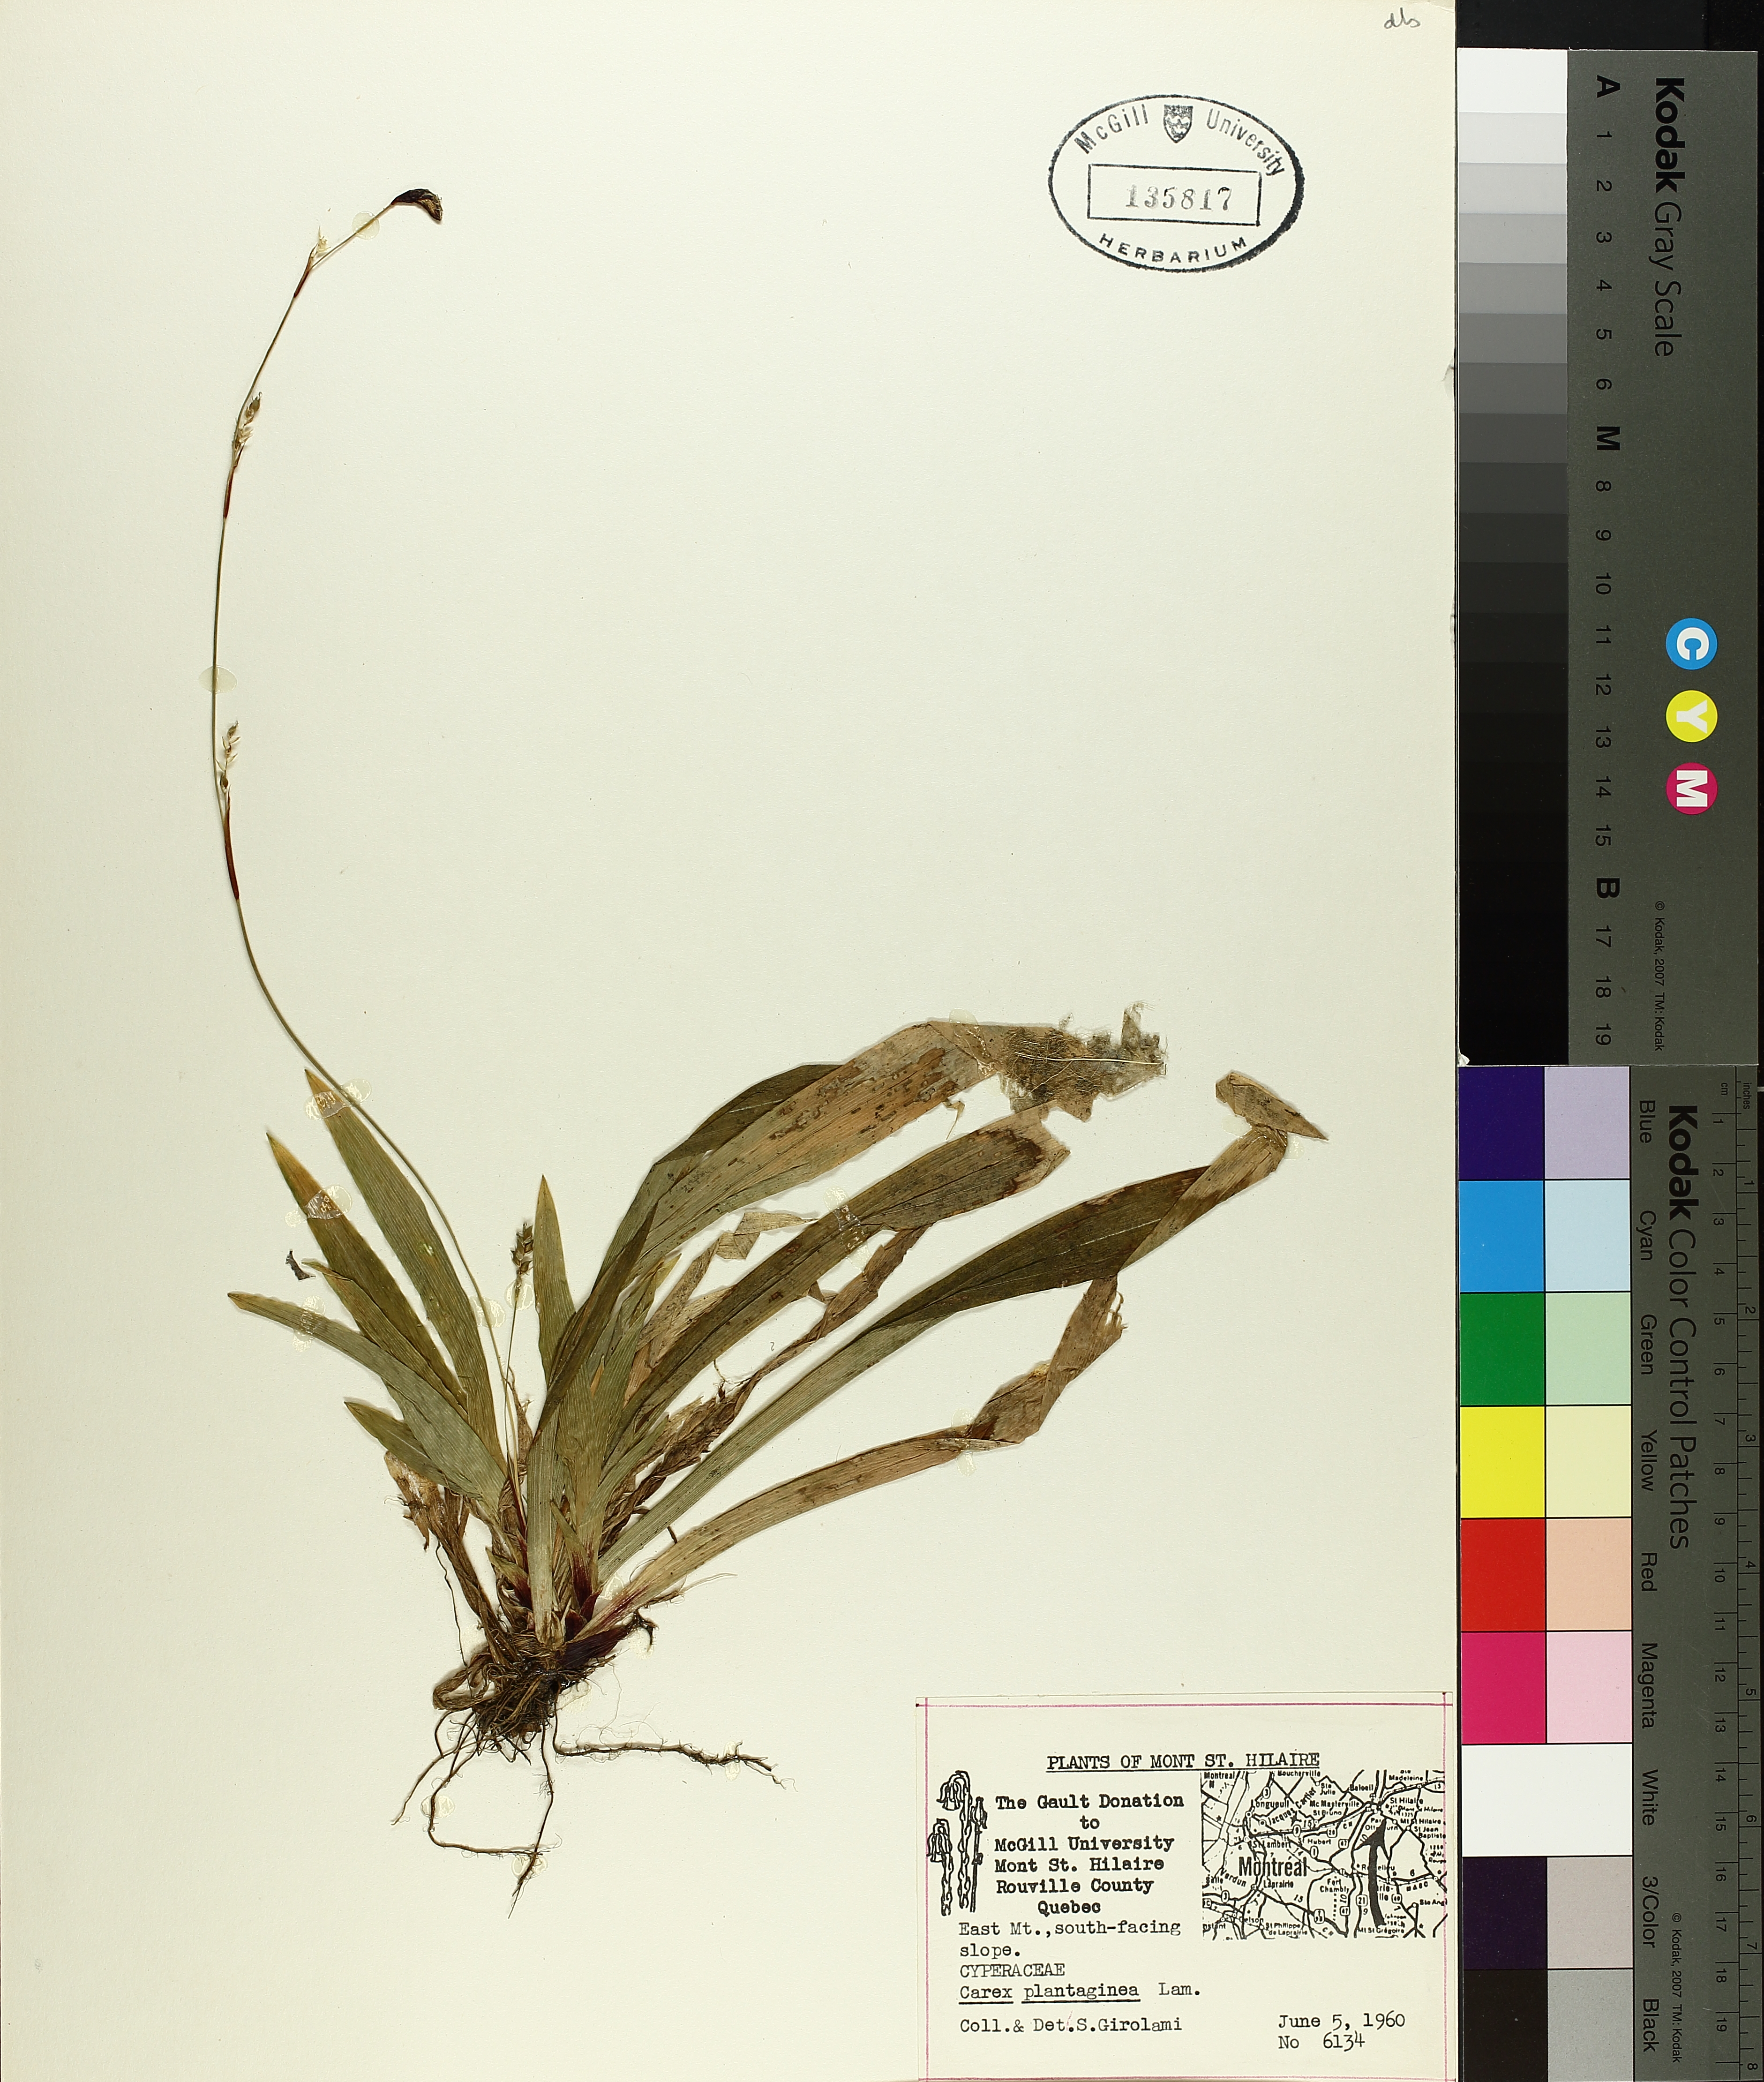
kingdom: Plantae
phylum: Tracheophyta
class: Liliopsida
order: Poales
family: Cyperaceae
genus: Carex
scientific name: Carex plantaginea
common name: Plantain-leaved sedge
